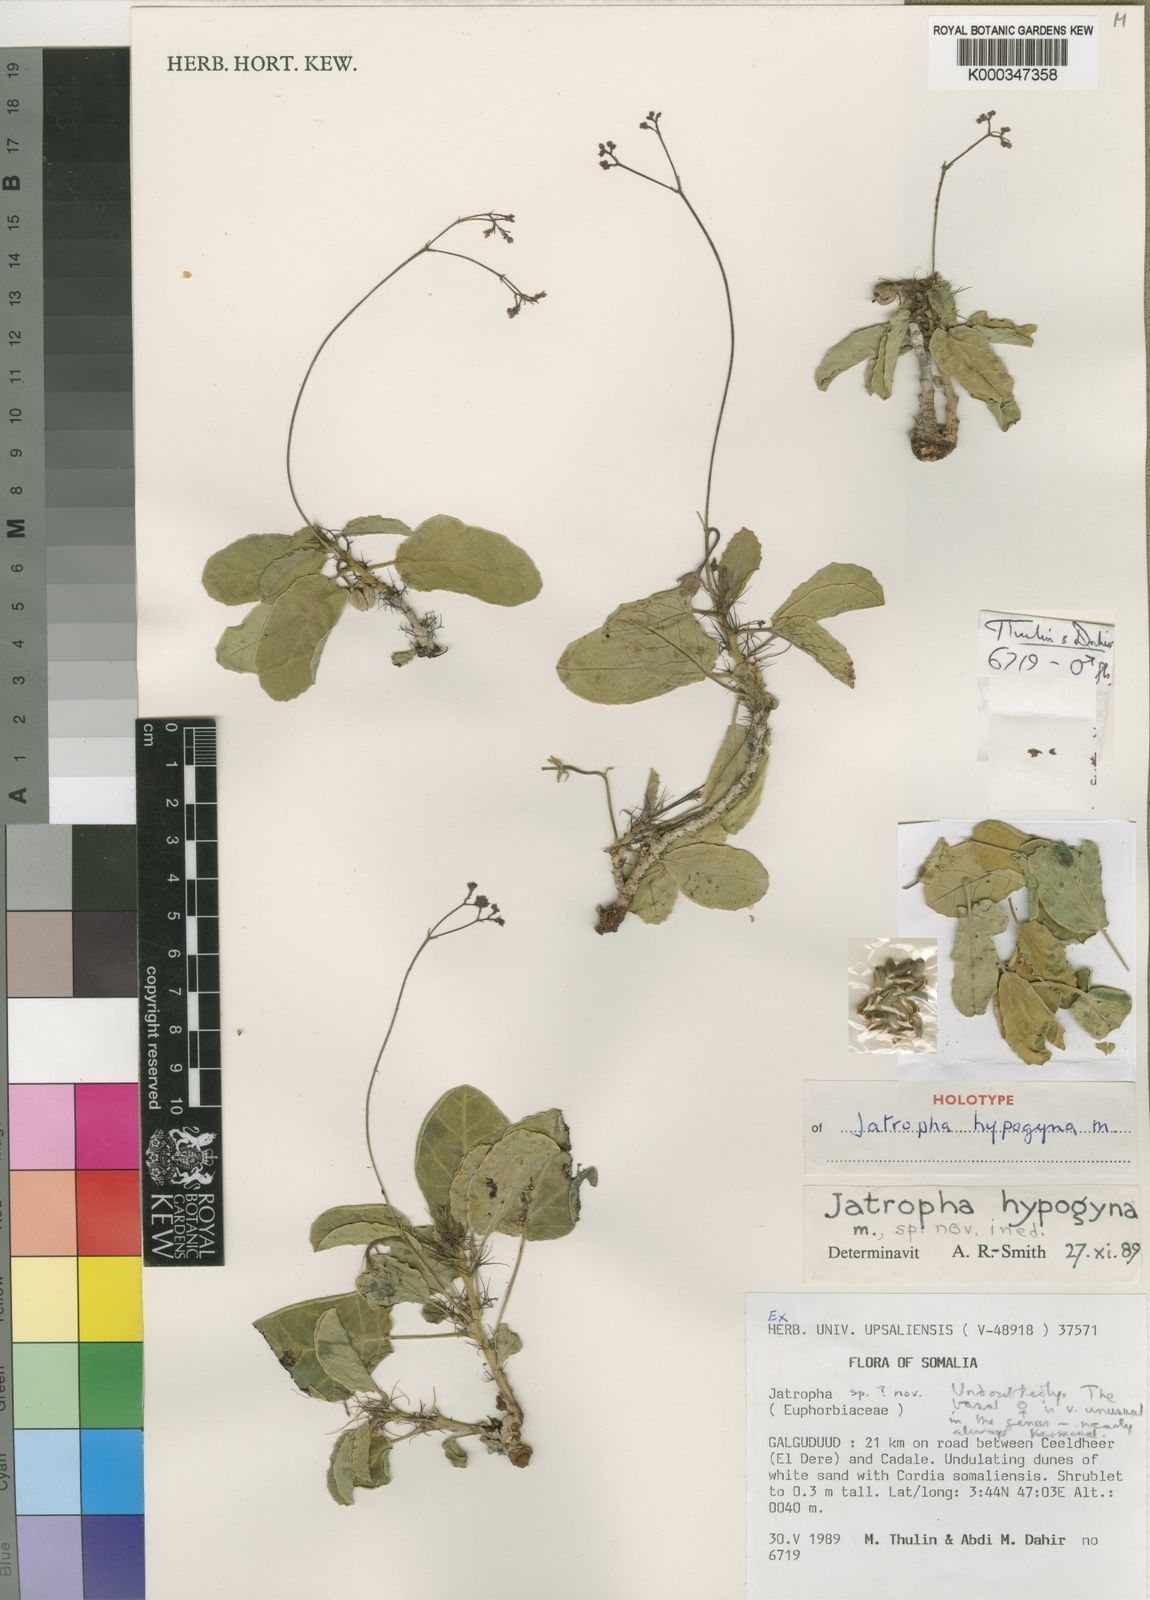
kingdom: Plantae
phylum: Tracheophyta
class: Magnoliopsida
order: Malpighiales
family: Euphorbiaceae
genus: Jatropha
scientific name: Jatropha hypogyna
